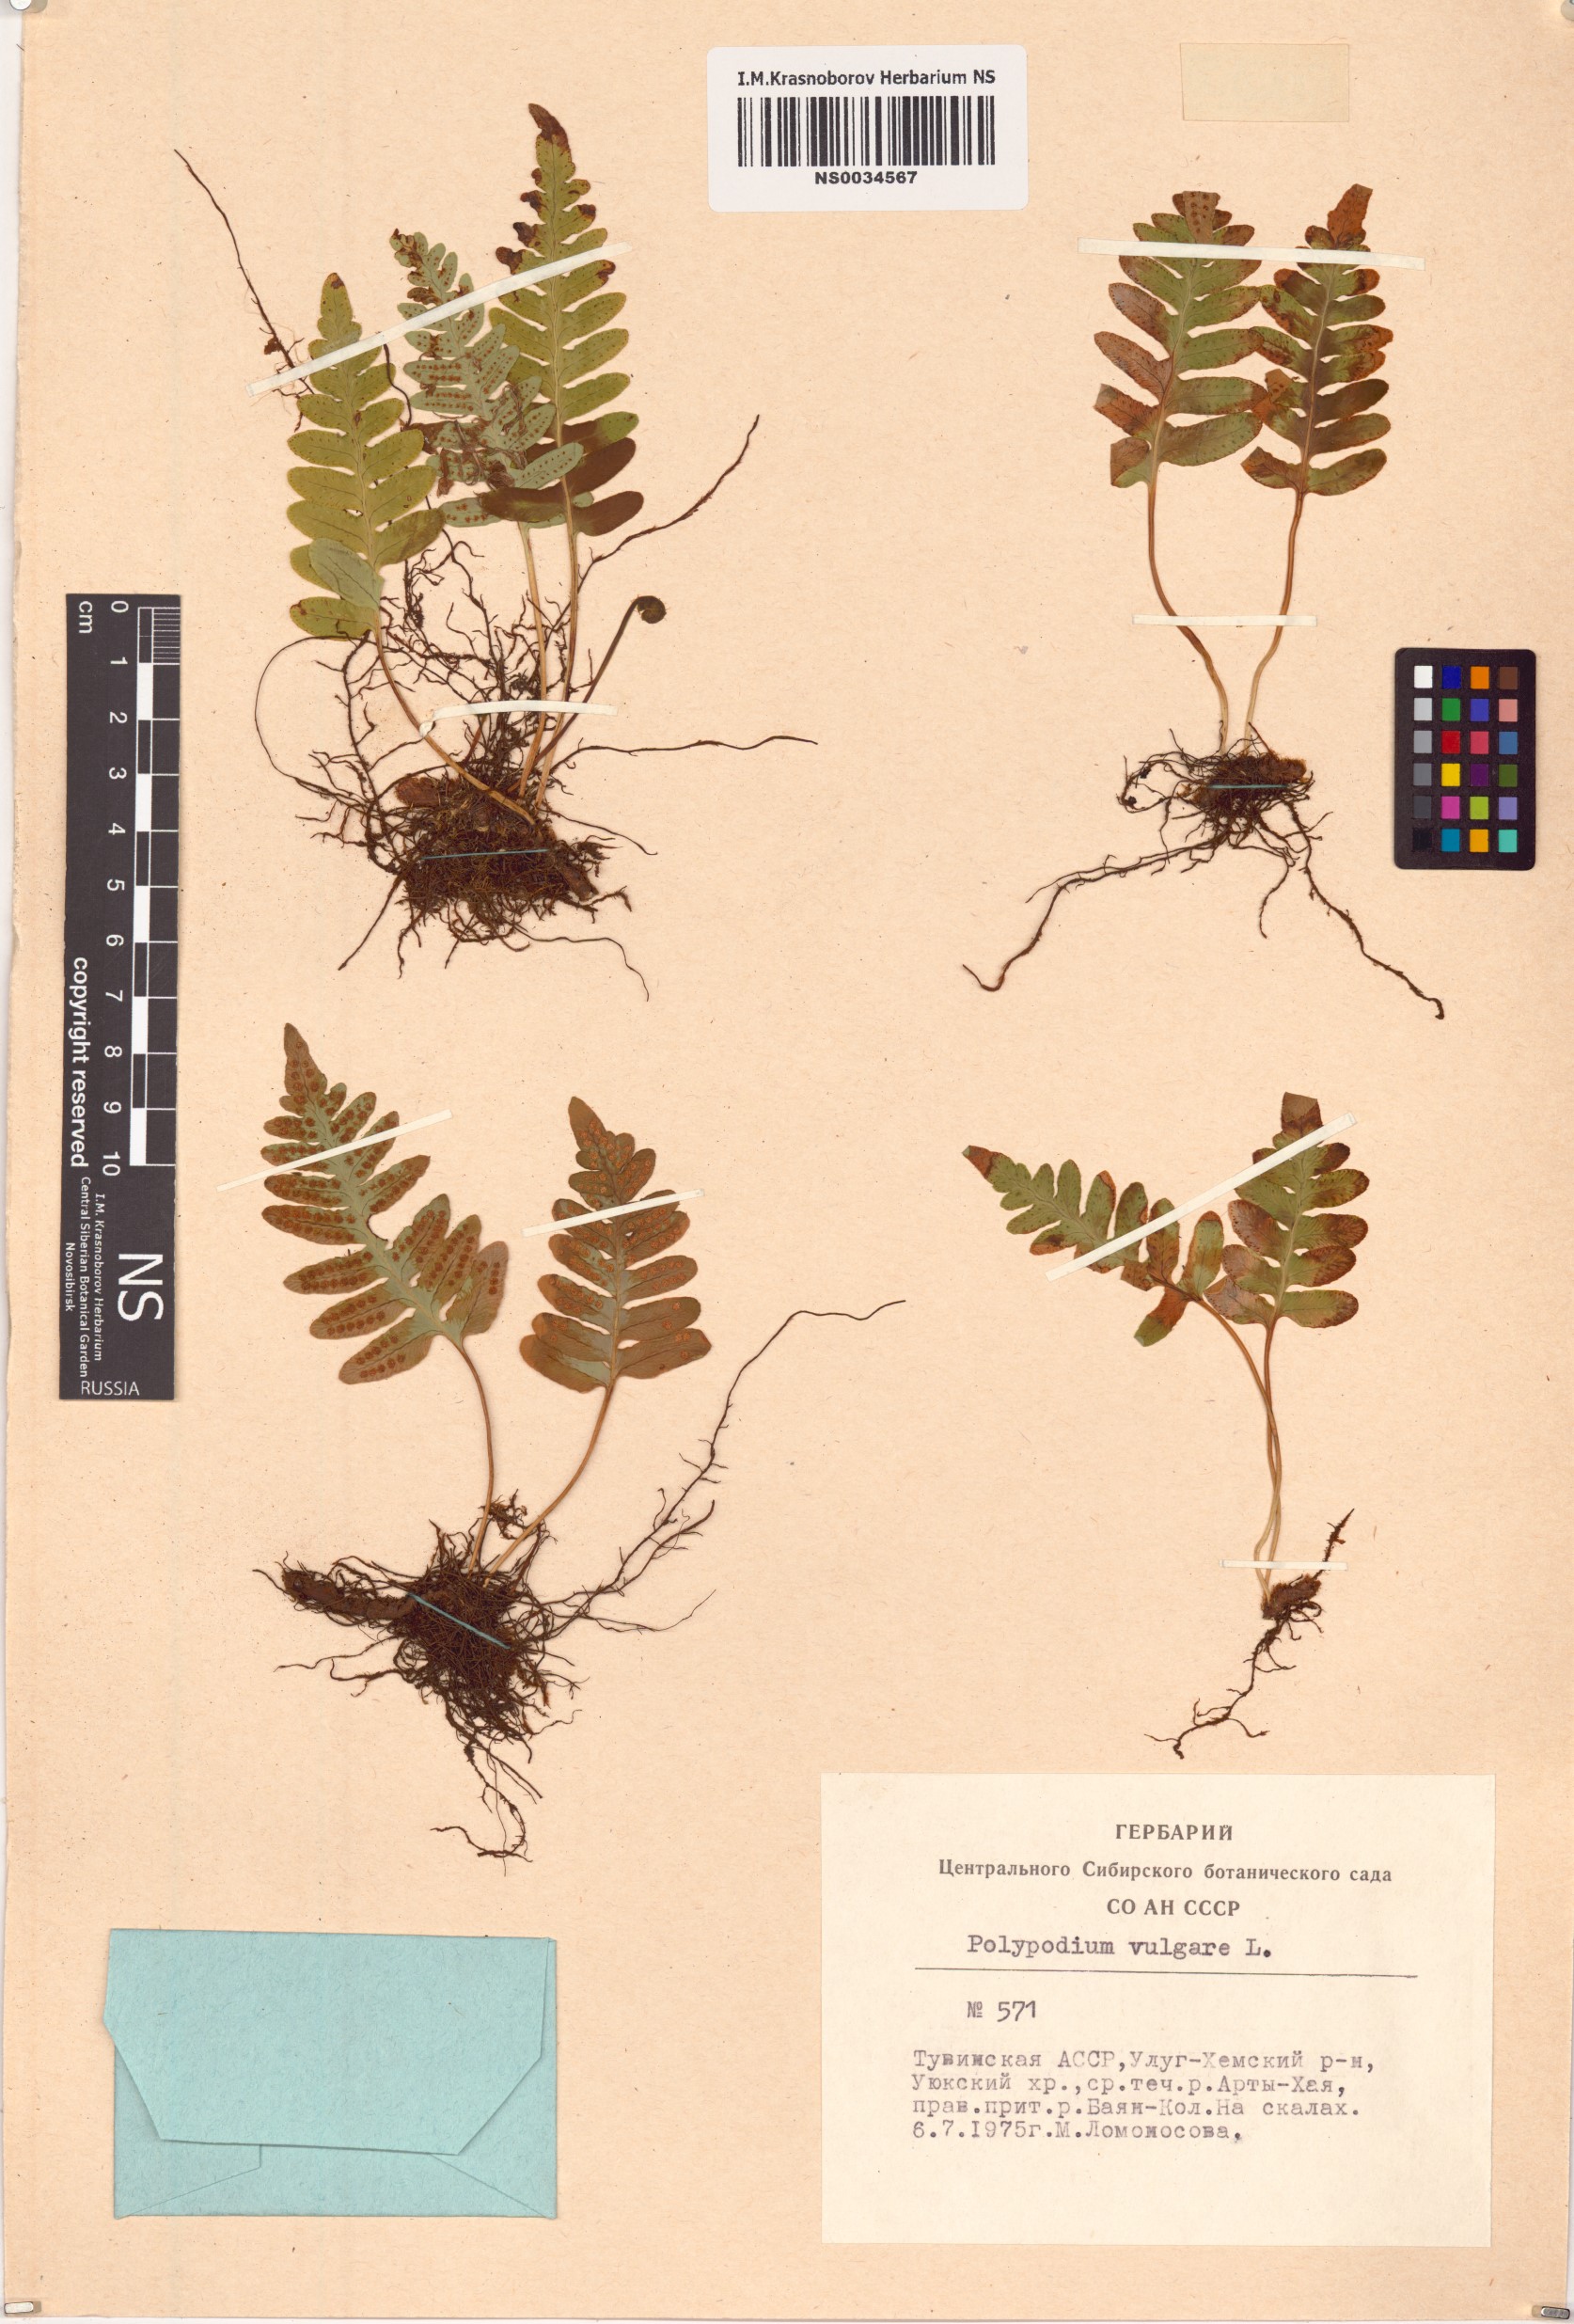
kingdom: Plantae
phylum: Tracheophyta
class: Polypodiopsida
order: Polypodiales
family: Polypodiaceae
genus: Polypodium
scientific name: Polypodium vulgare
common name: Common polypody
